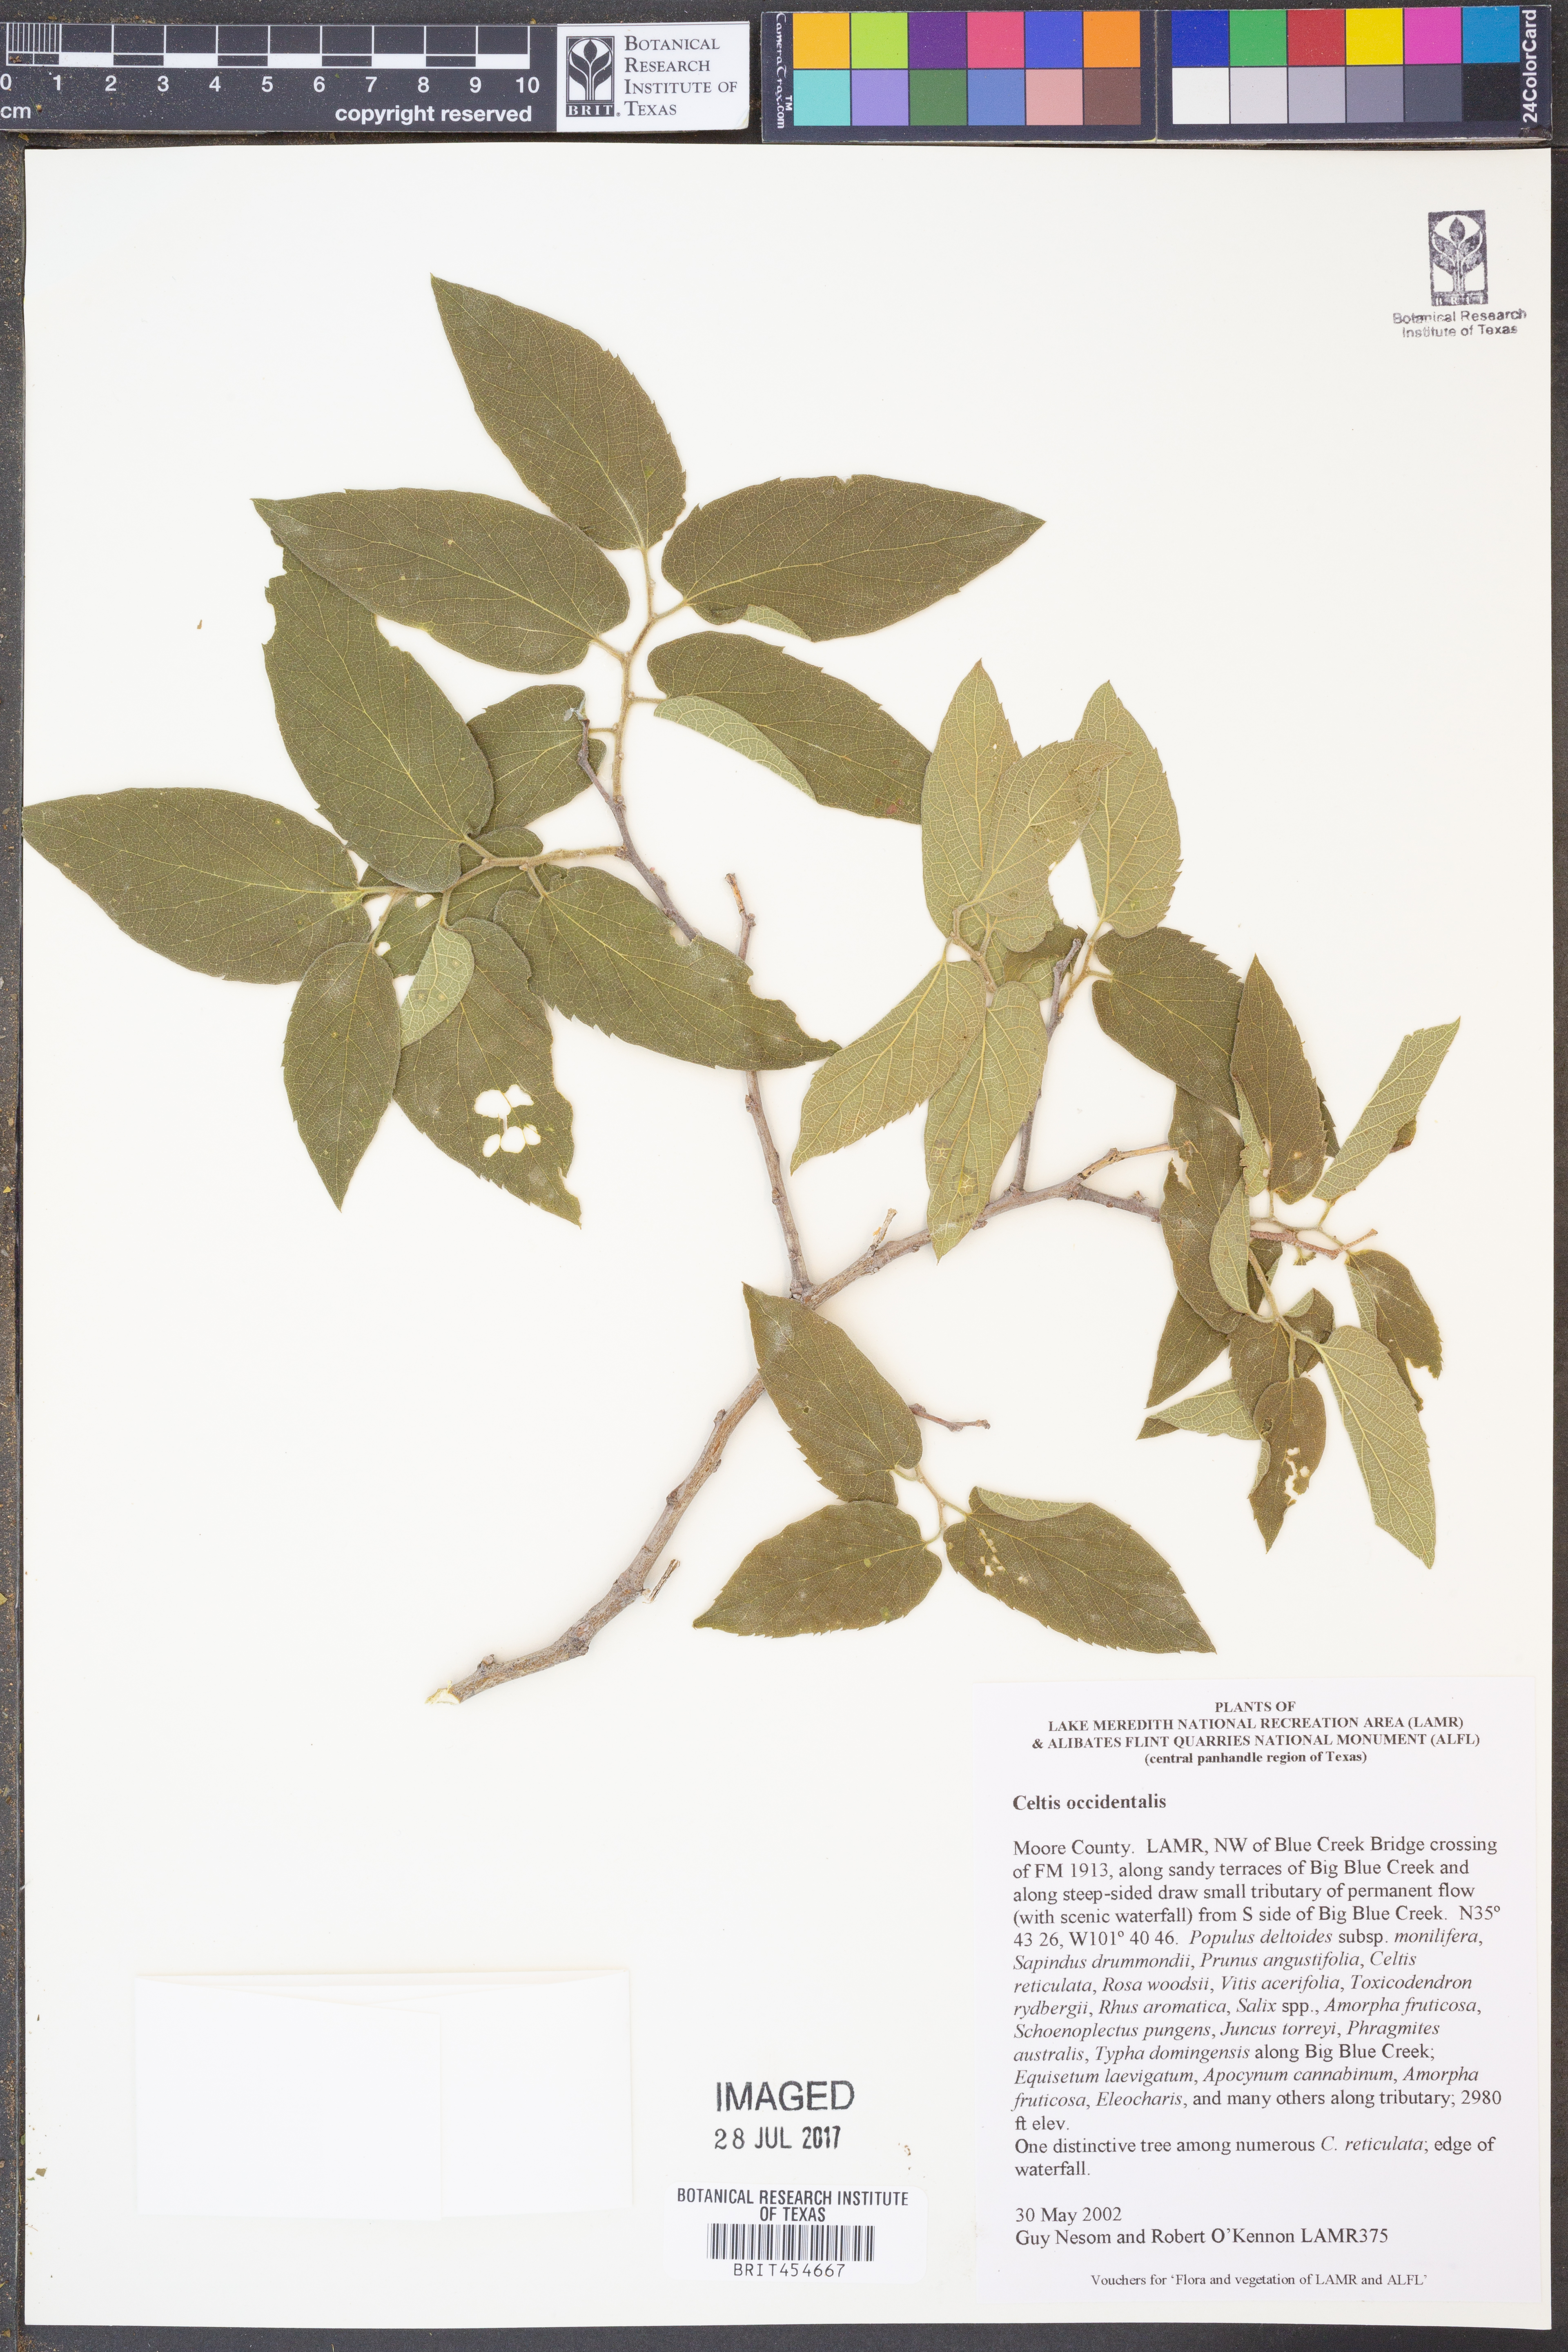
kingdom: Plantae
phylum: Tracheophyta
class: Magnoliopsida
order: Rosales
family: Cannabaceae
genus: Celtis
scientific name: Celtis occidentalis
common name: Common hackberry
